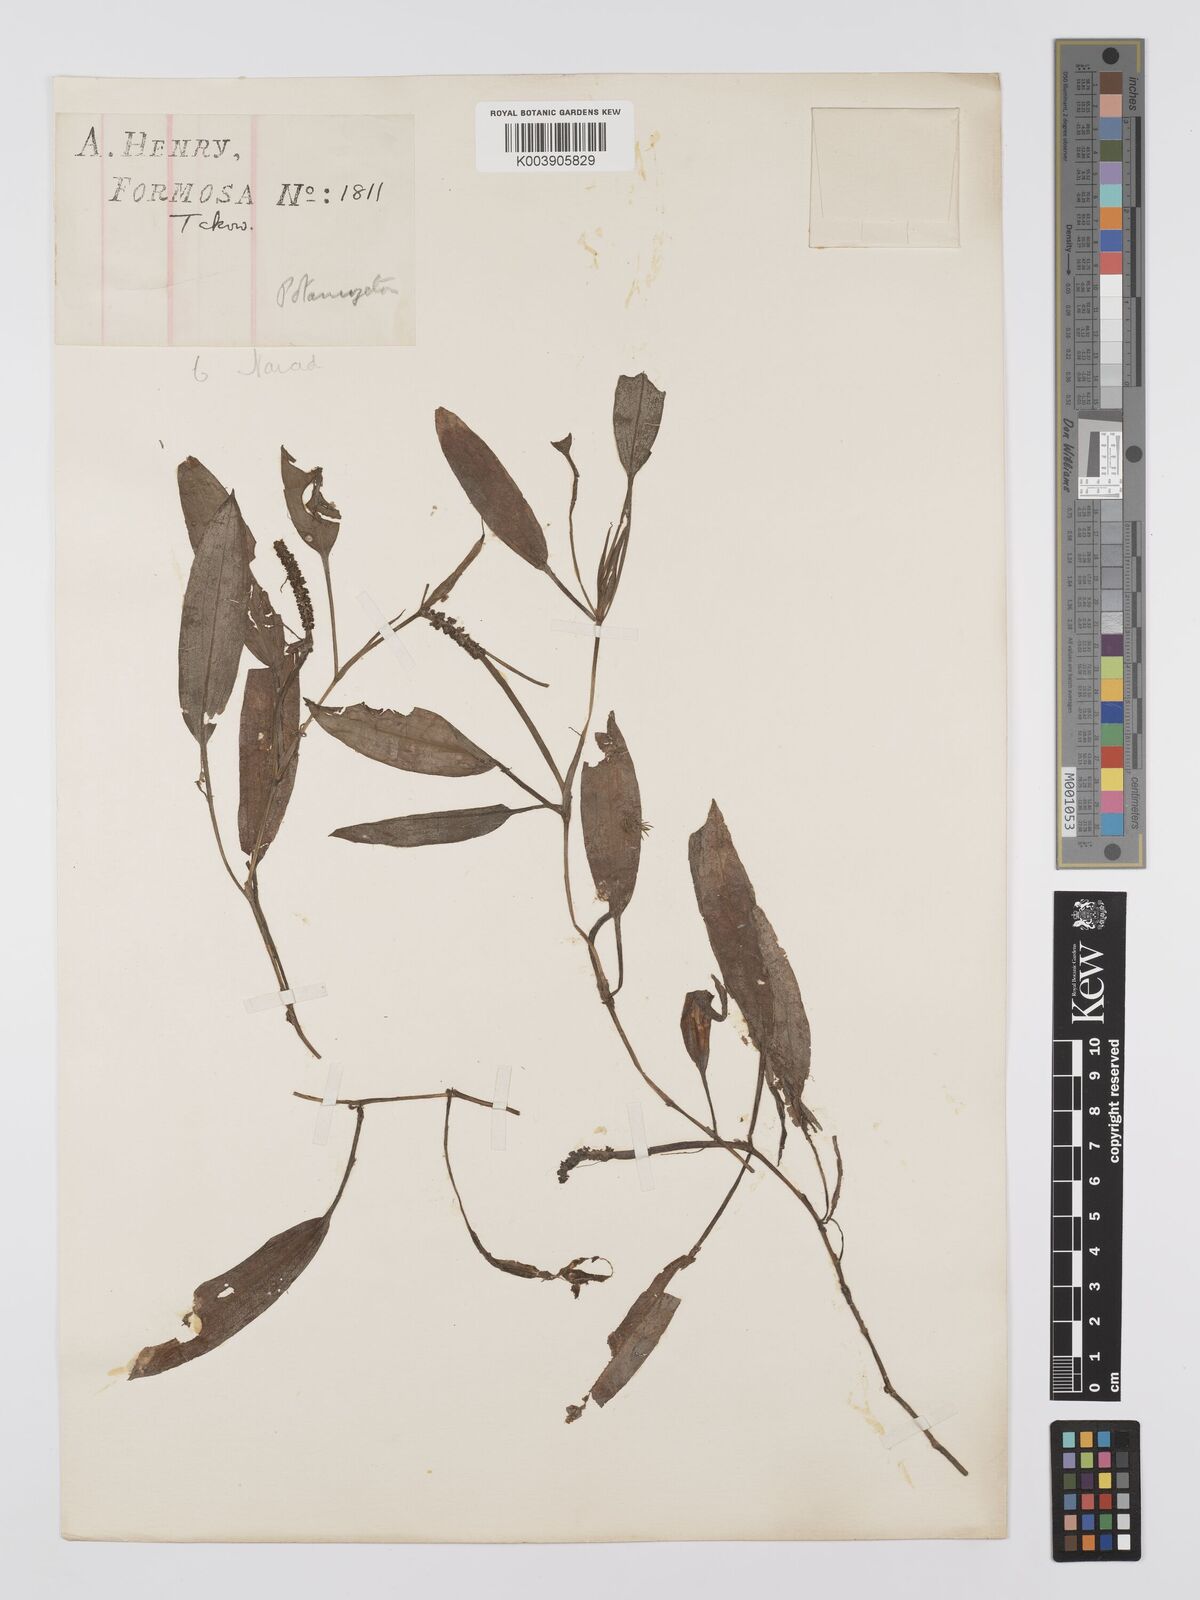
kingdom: Plantae
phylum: Tracheophyta
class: Liliopsida
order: Alismatales
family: Potamogetonaceae
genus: Potamogeton
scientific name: Potamogeton nodosus
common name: Loddon pondweed
